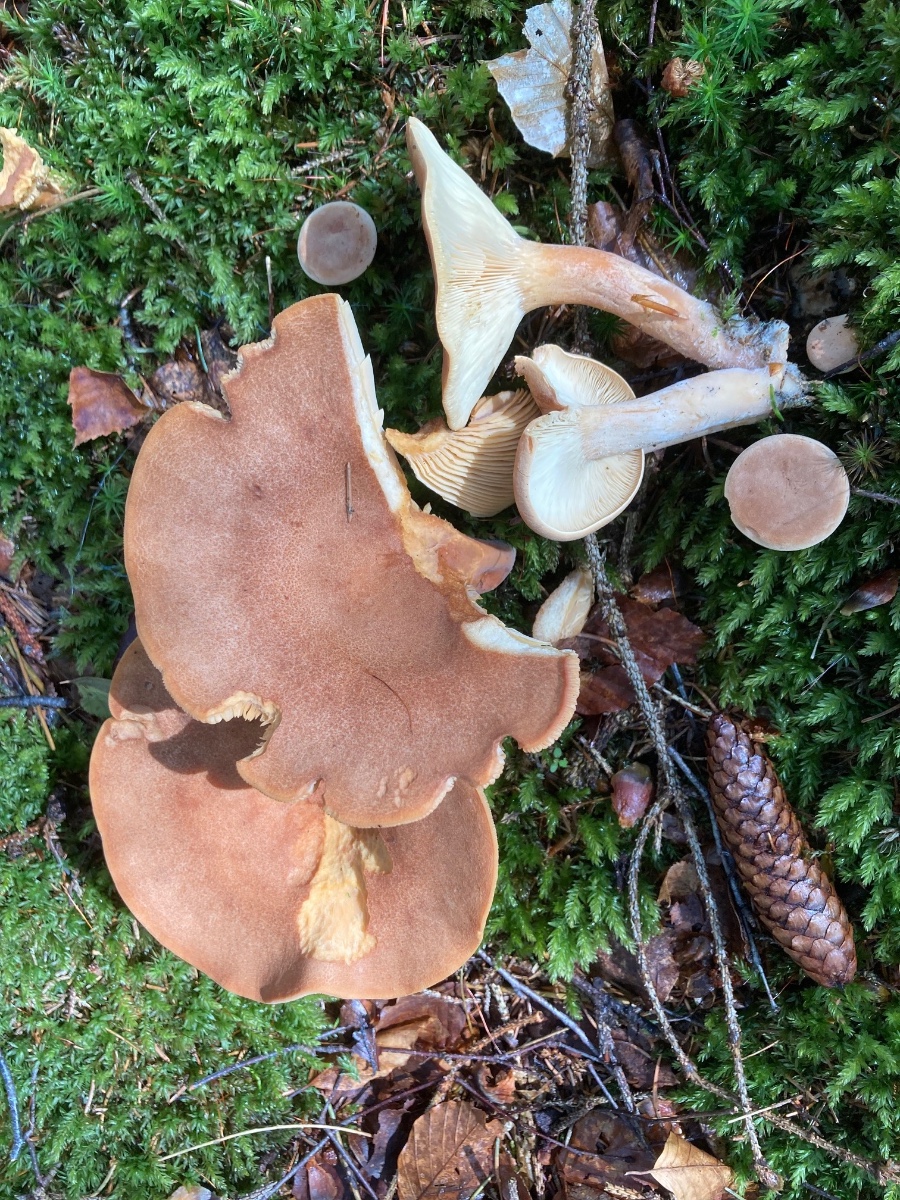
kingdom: Fungi
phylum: Basidiomycota
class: Agaricomycetes
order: Russulales
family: Russulaceae
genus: Lactarius
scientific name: Lactarius helvus
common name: mose-mælkehat
